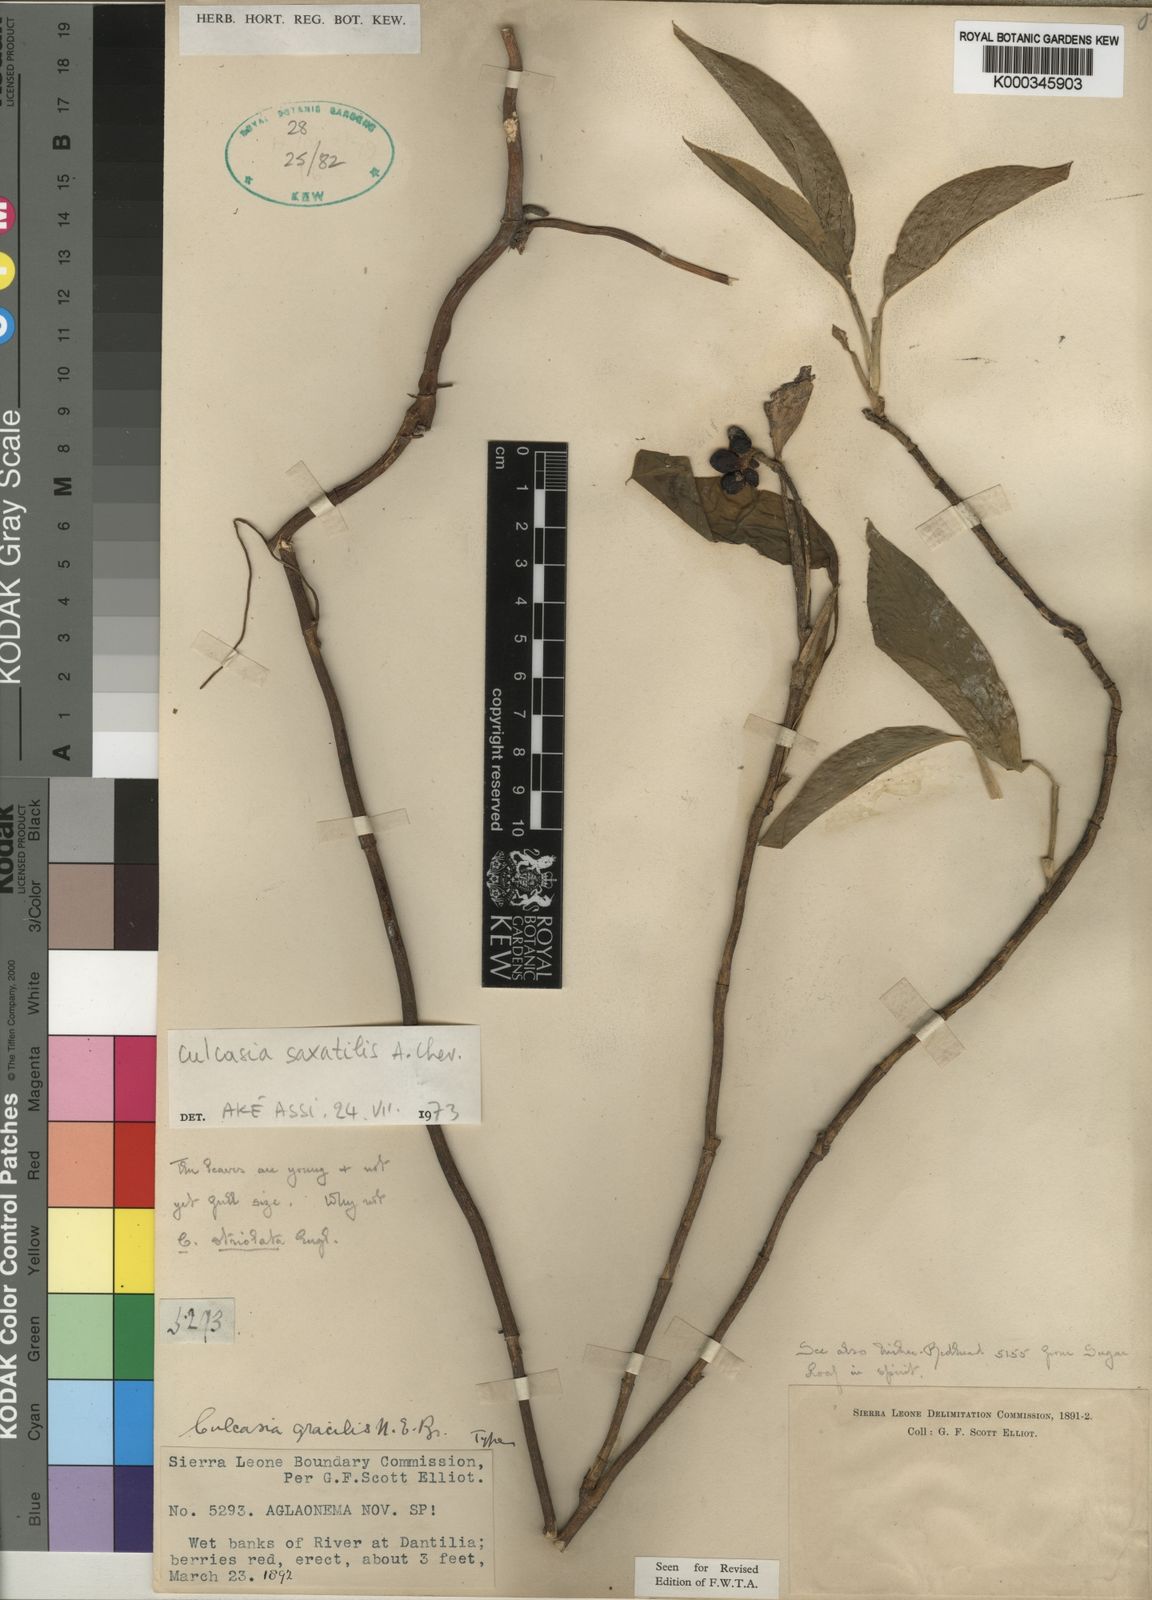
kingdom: Plantae
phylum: Tracheophyta
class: Liliopsida
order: Alismatales
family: Araceae
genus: Culcasia
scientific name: Culcasia scandens
